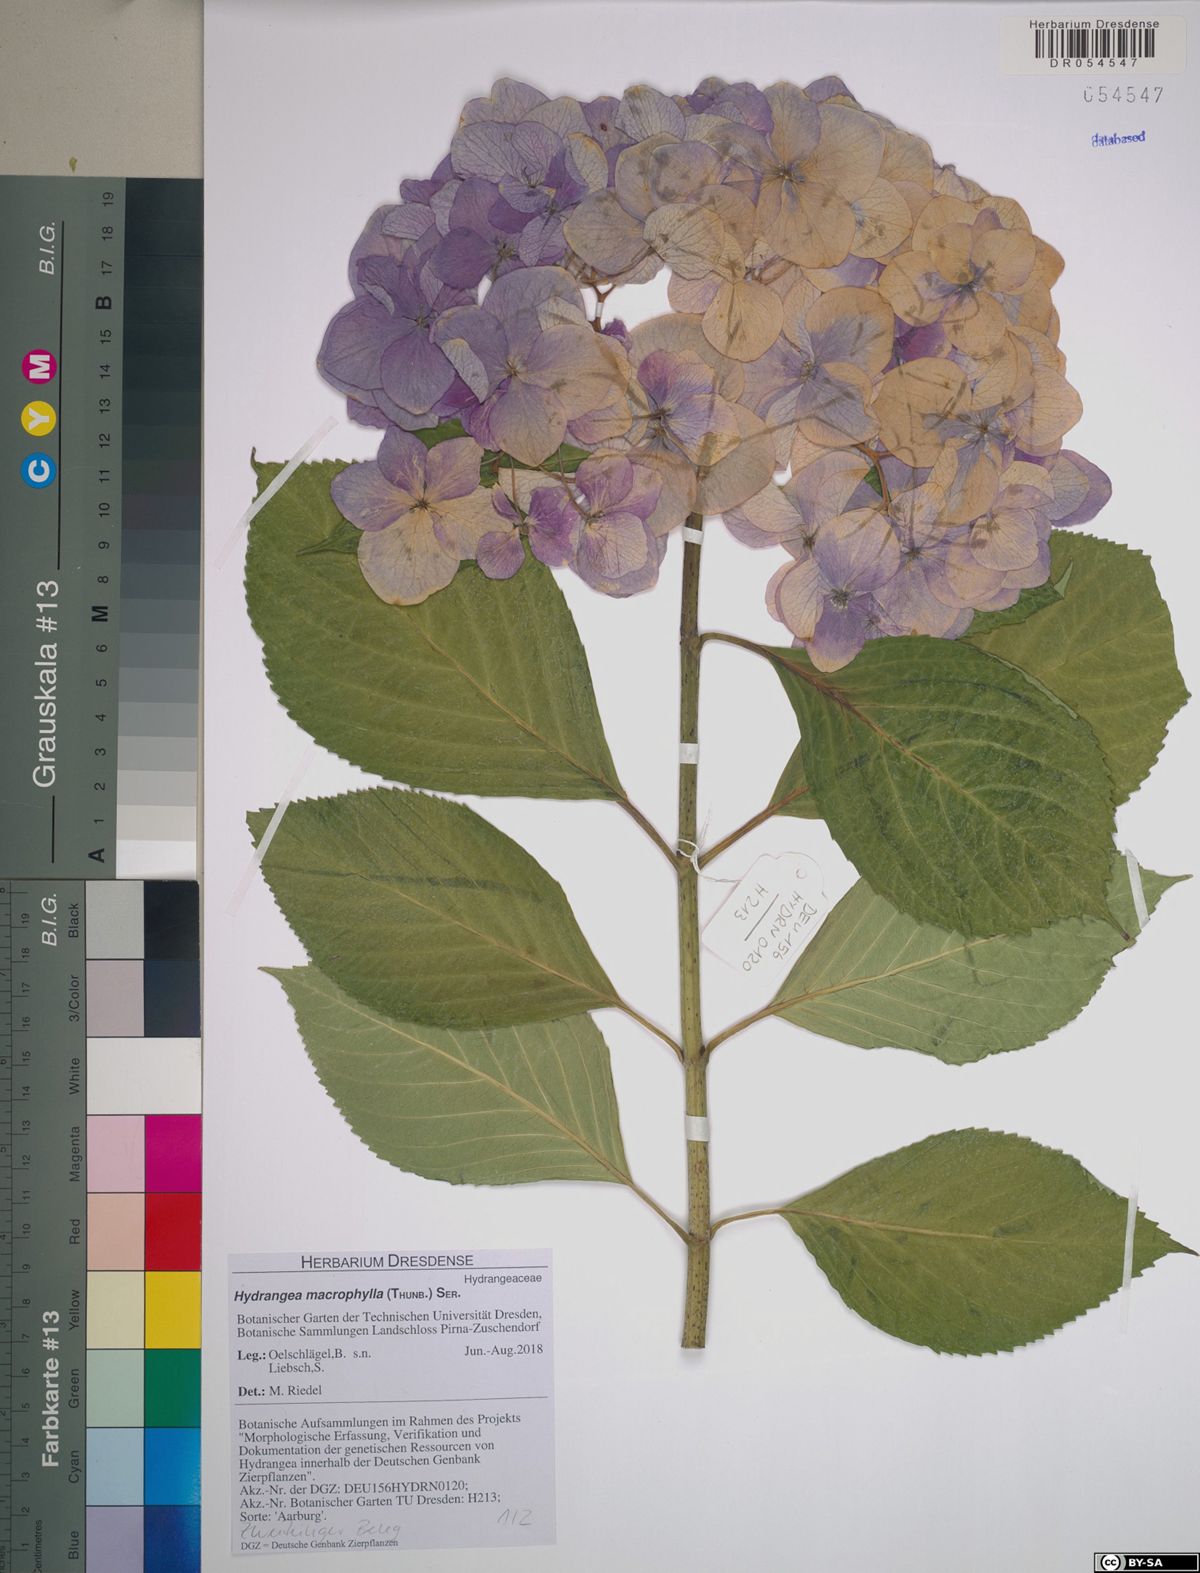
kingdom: Plantae
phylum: Tracheophyta
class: Magnoliopsida
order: Cornales
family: Hydrangeaceae
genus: Hydrangea
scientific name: Hydrangea macrophylla
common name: Hydrangea
